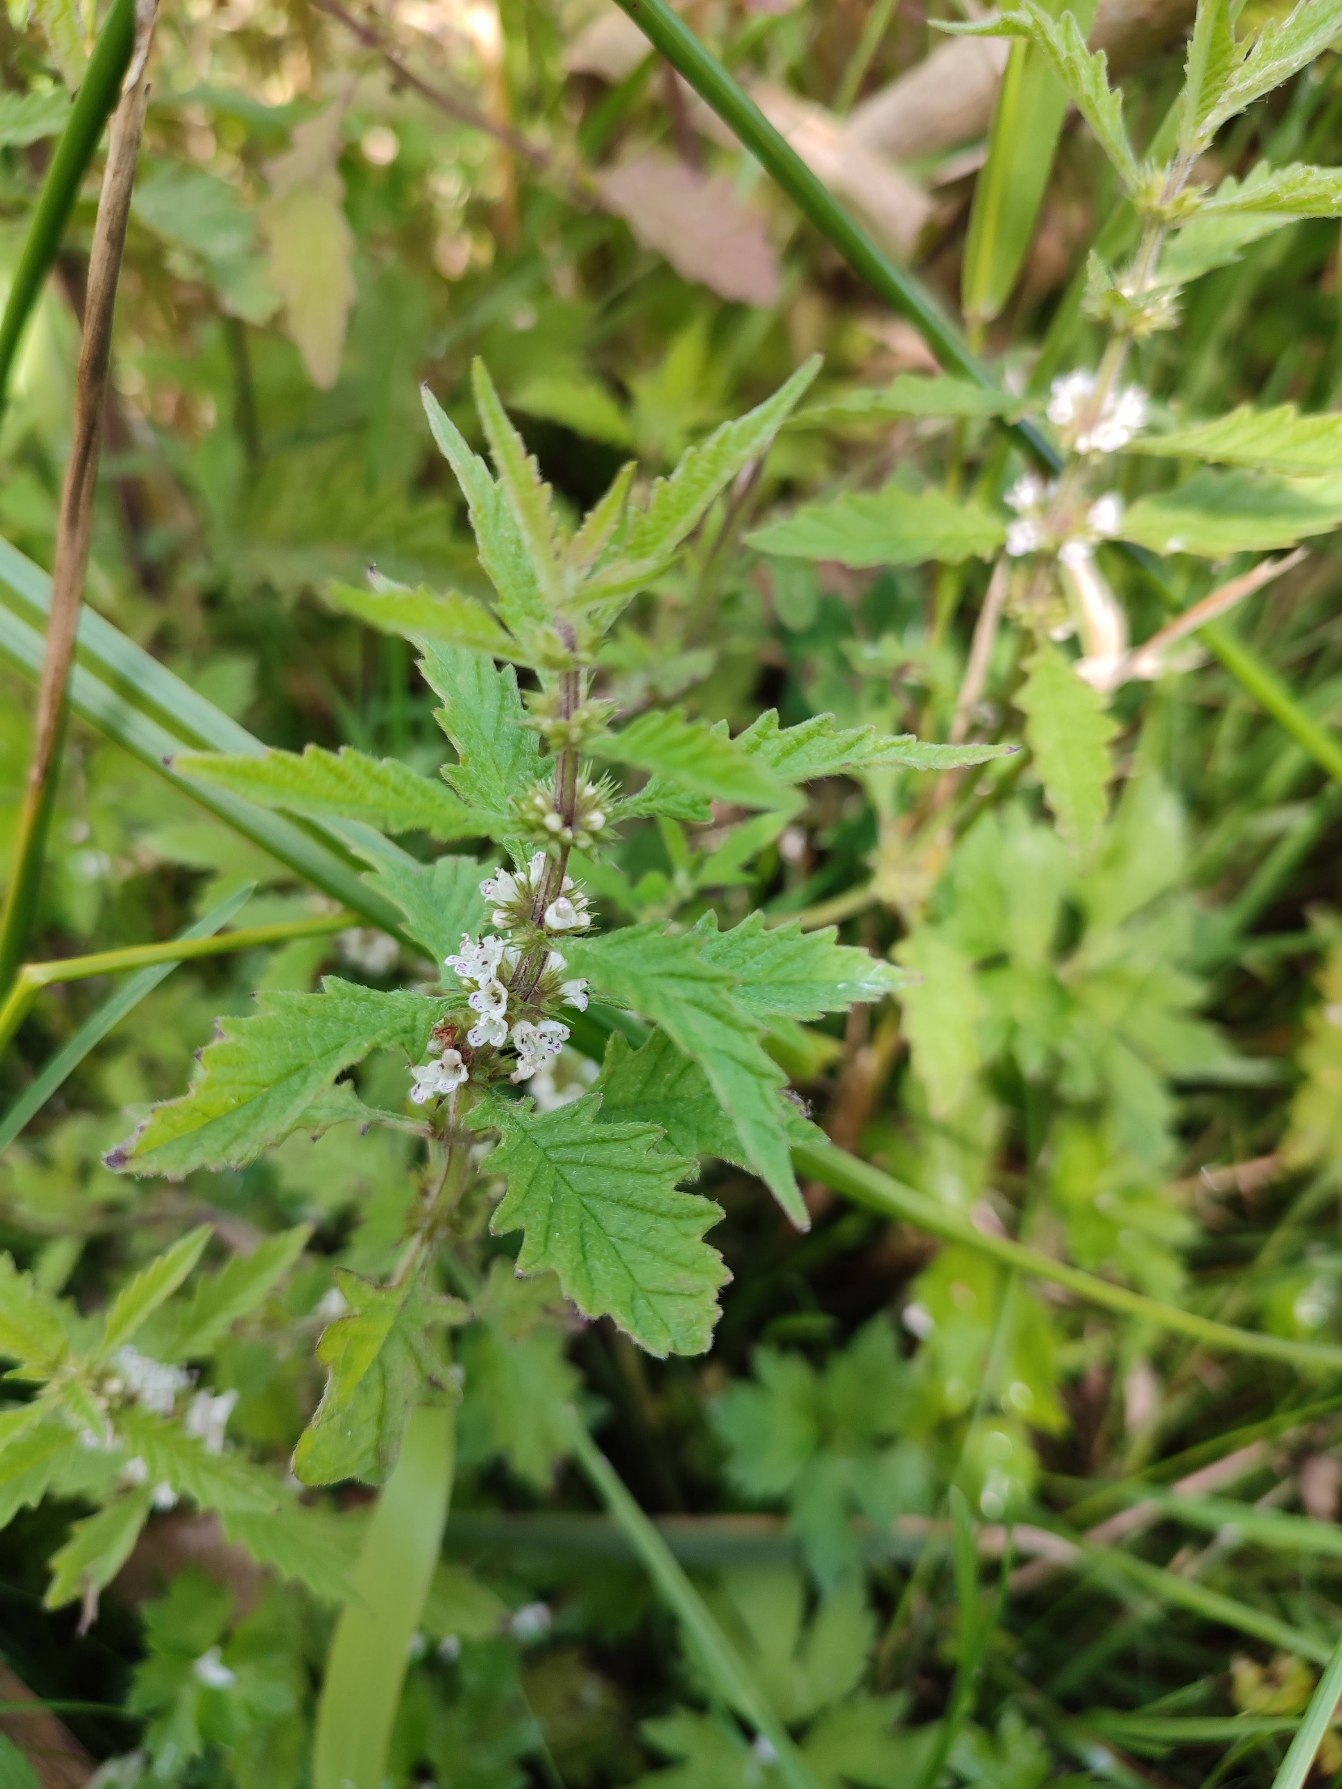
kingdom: Plantae
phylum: Tracheophyta
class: Magnoliopsida
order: Lamiales
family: Lamiaceae
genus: Lycopus
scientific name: Lycopus europaeus
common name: Sværtevæld
